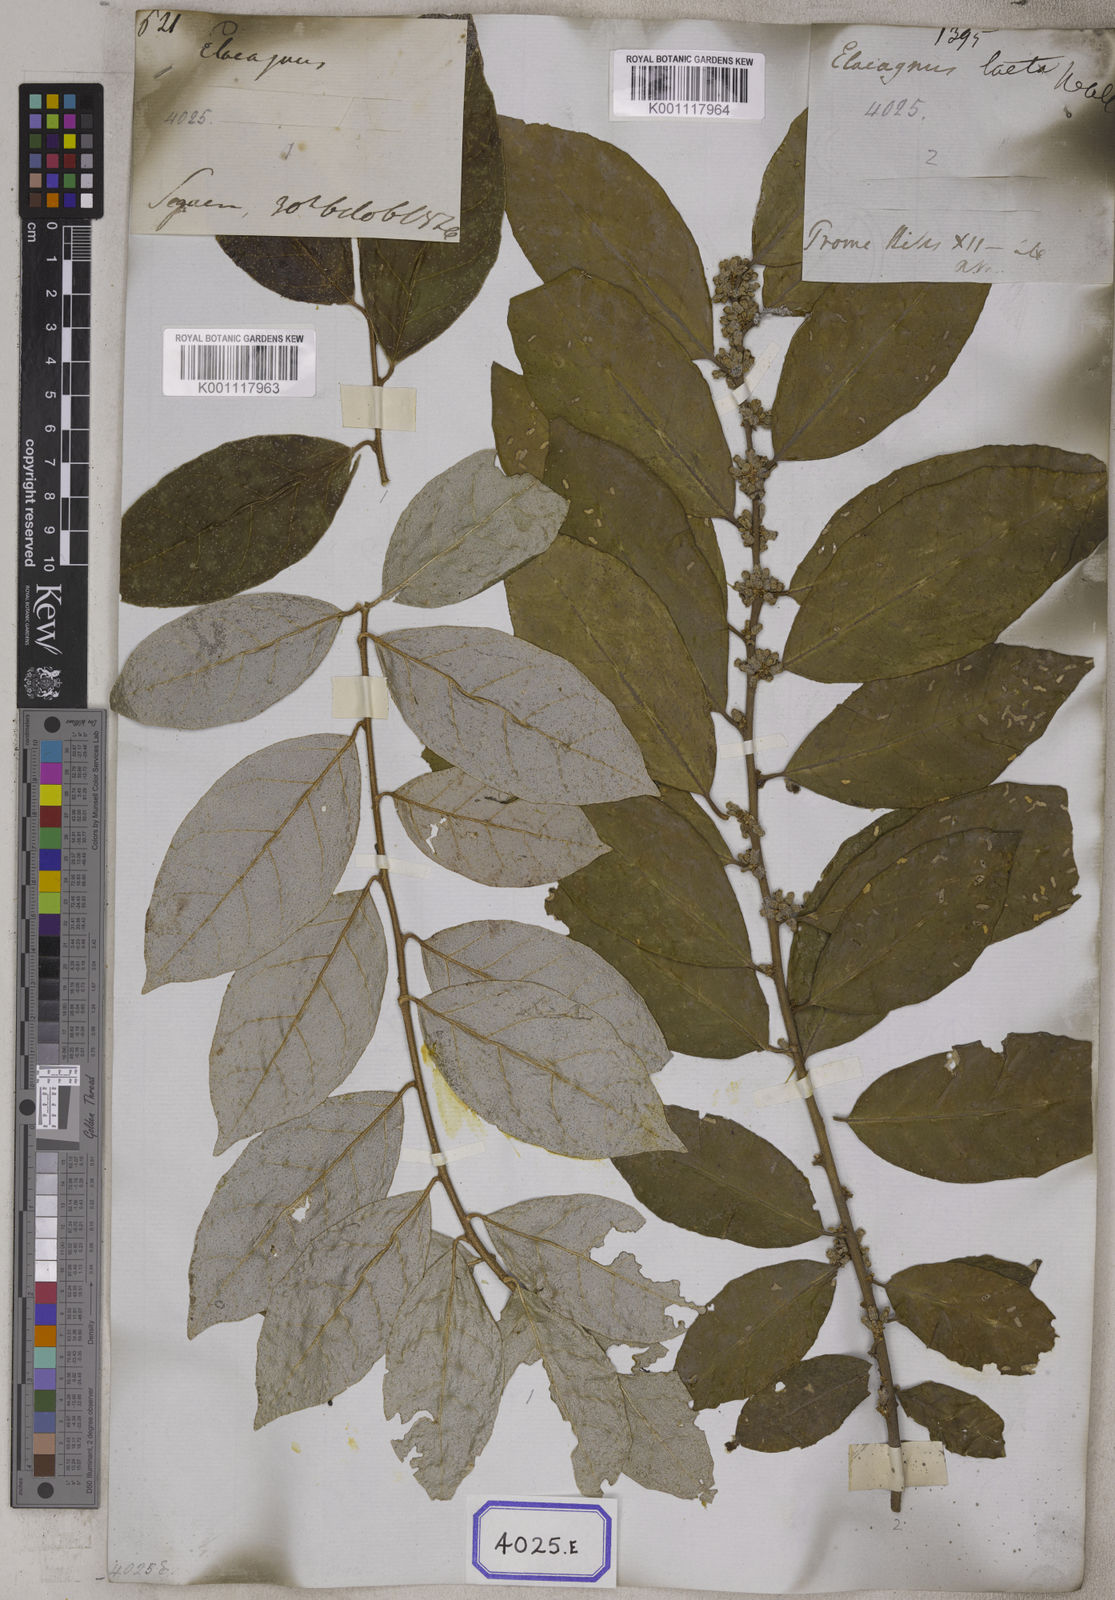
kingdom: Plantae
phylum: Tracheophyta
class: Magnoliopsida
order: Rosales
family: Elaeagnaceae
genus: Elaeagnus
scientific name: Elaeagnus conferta
